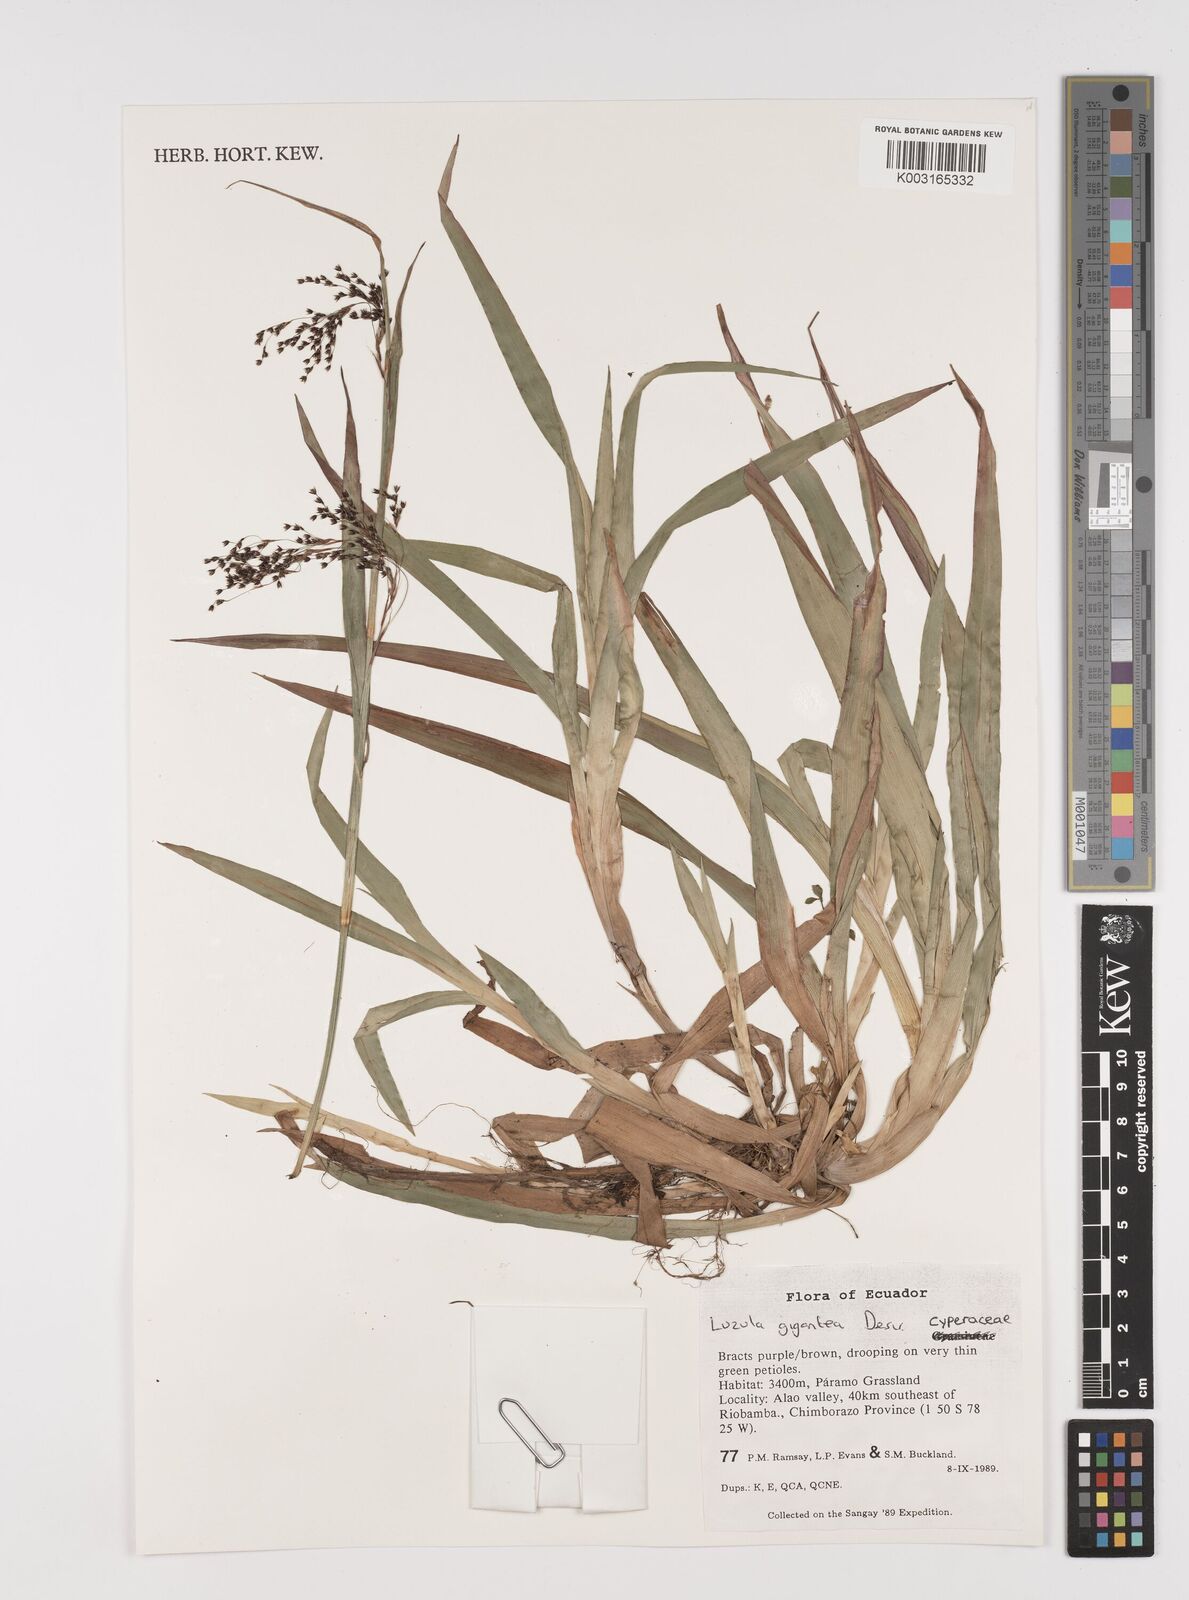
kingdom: Plantae
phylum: Tracheophyta
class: Liliopsida
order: Poales
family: Juncaceae
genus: Luzula
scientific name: Luzula gigantea
